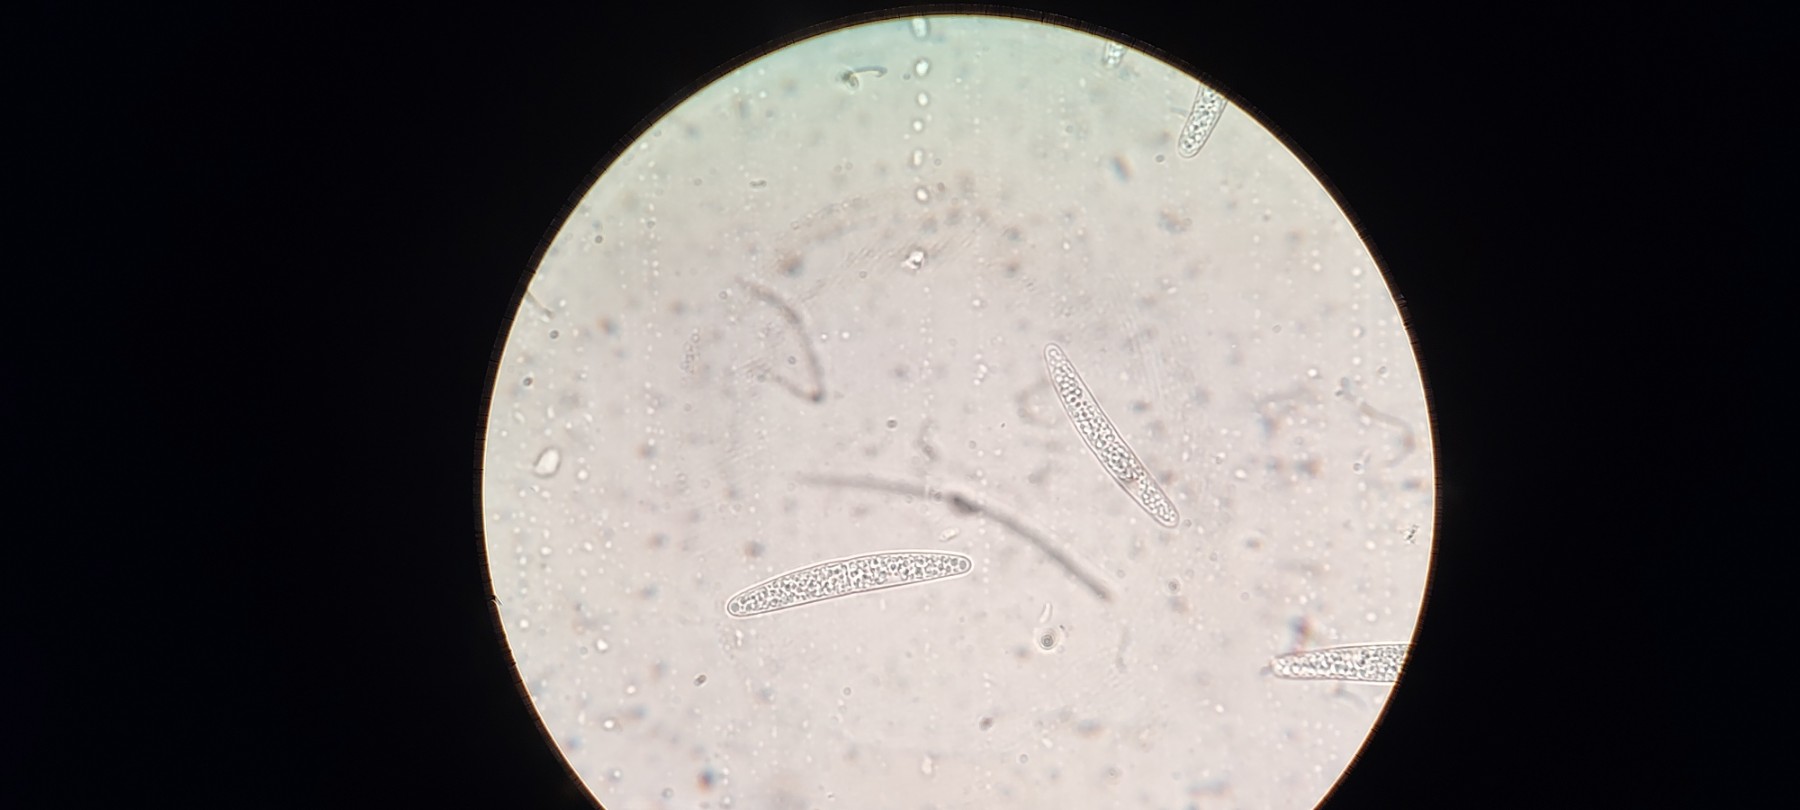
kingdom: Fungi
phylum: Ascomycota
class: Sordariomycetes
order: Coronophorales
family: Bertiaceae
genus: Bertia
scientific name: Bertia moriformis
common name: almindelig morbærkerne
